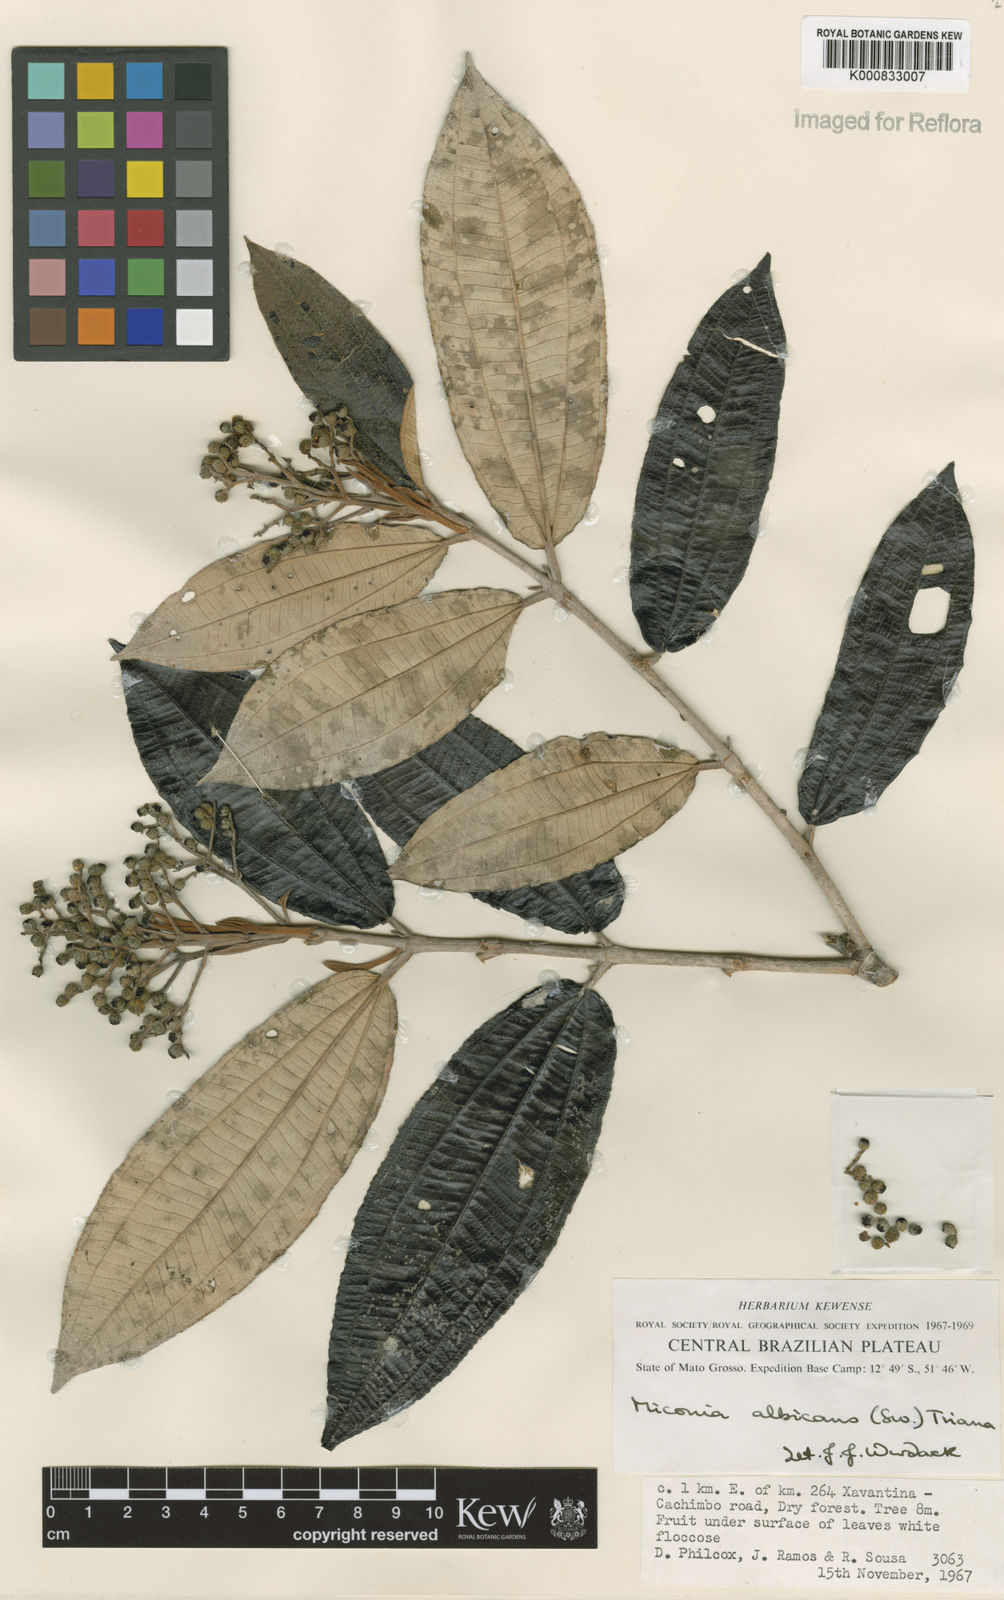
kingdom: Plantae
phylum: Tracheophyta
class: Magnoliopsida
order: Myrtales
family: Melastomataceae
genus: Miconia
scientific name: Miconia albicans
